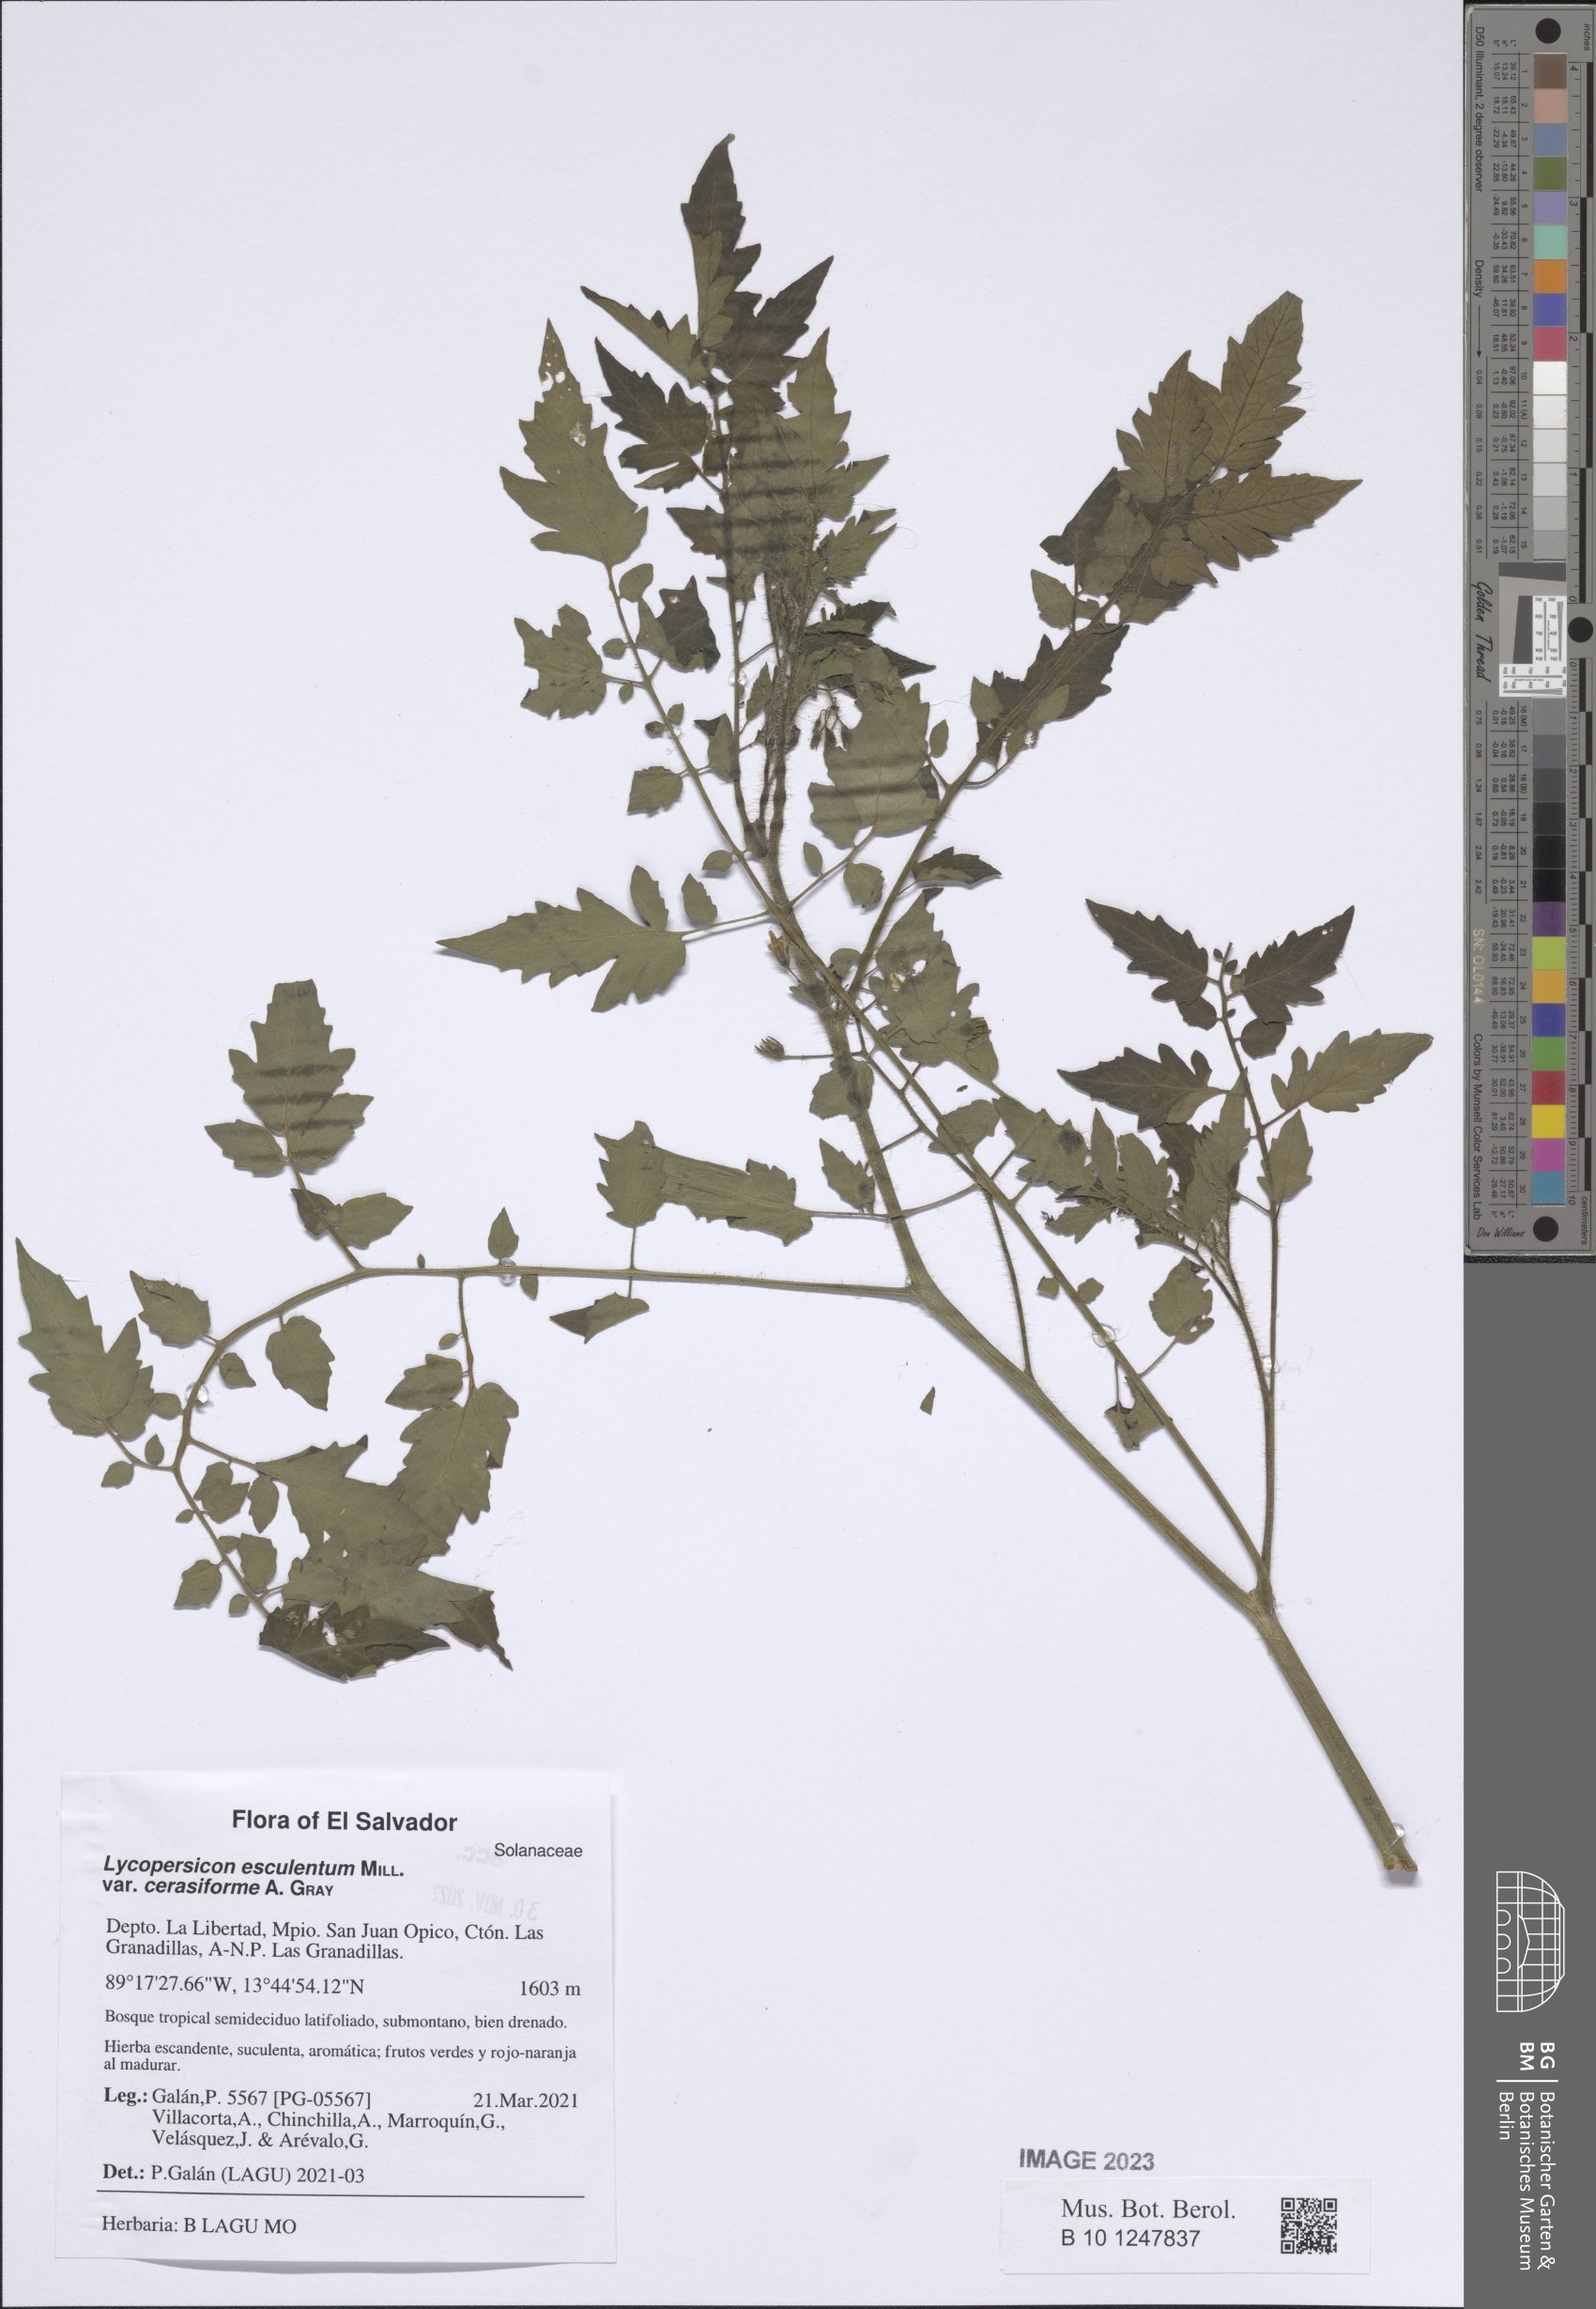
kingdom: Plantae
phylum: Tracheophyta
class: Magnoliopsida
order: Solanales
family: Solanaceae
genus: Solanum
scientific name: Solanum lycopersicum
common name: Garden tomato
